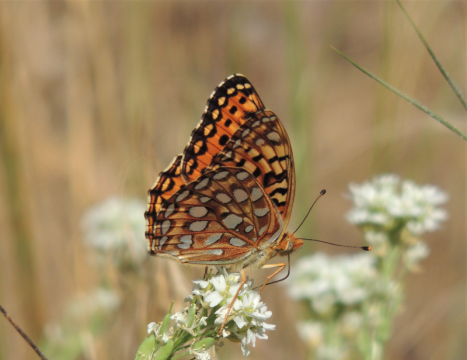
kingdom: Animalia
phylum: Arthropoda
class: Insecta
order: Lepidoptera
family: Nymphalidae
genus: Speyeria
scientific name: Speyeria coronis
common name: Coronis Fritillary
